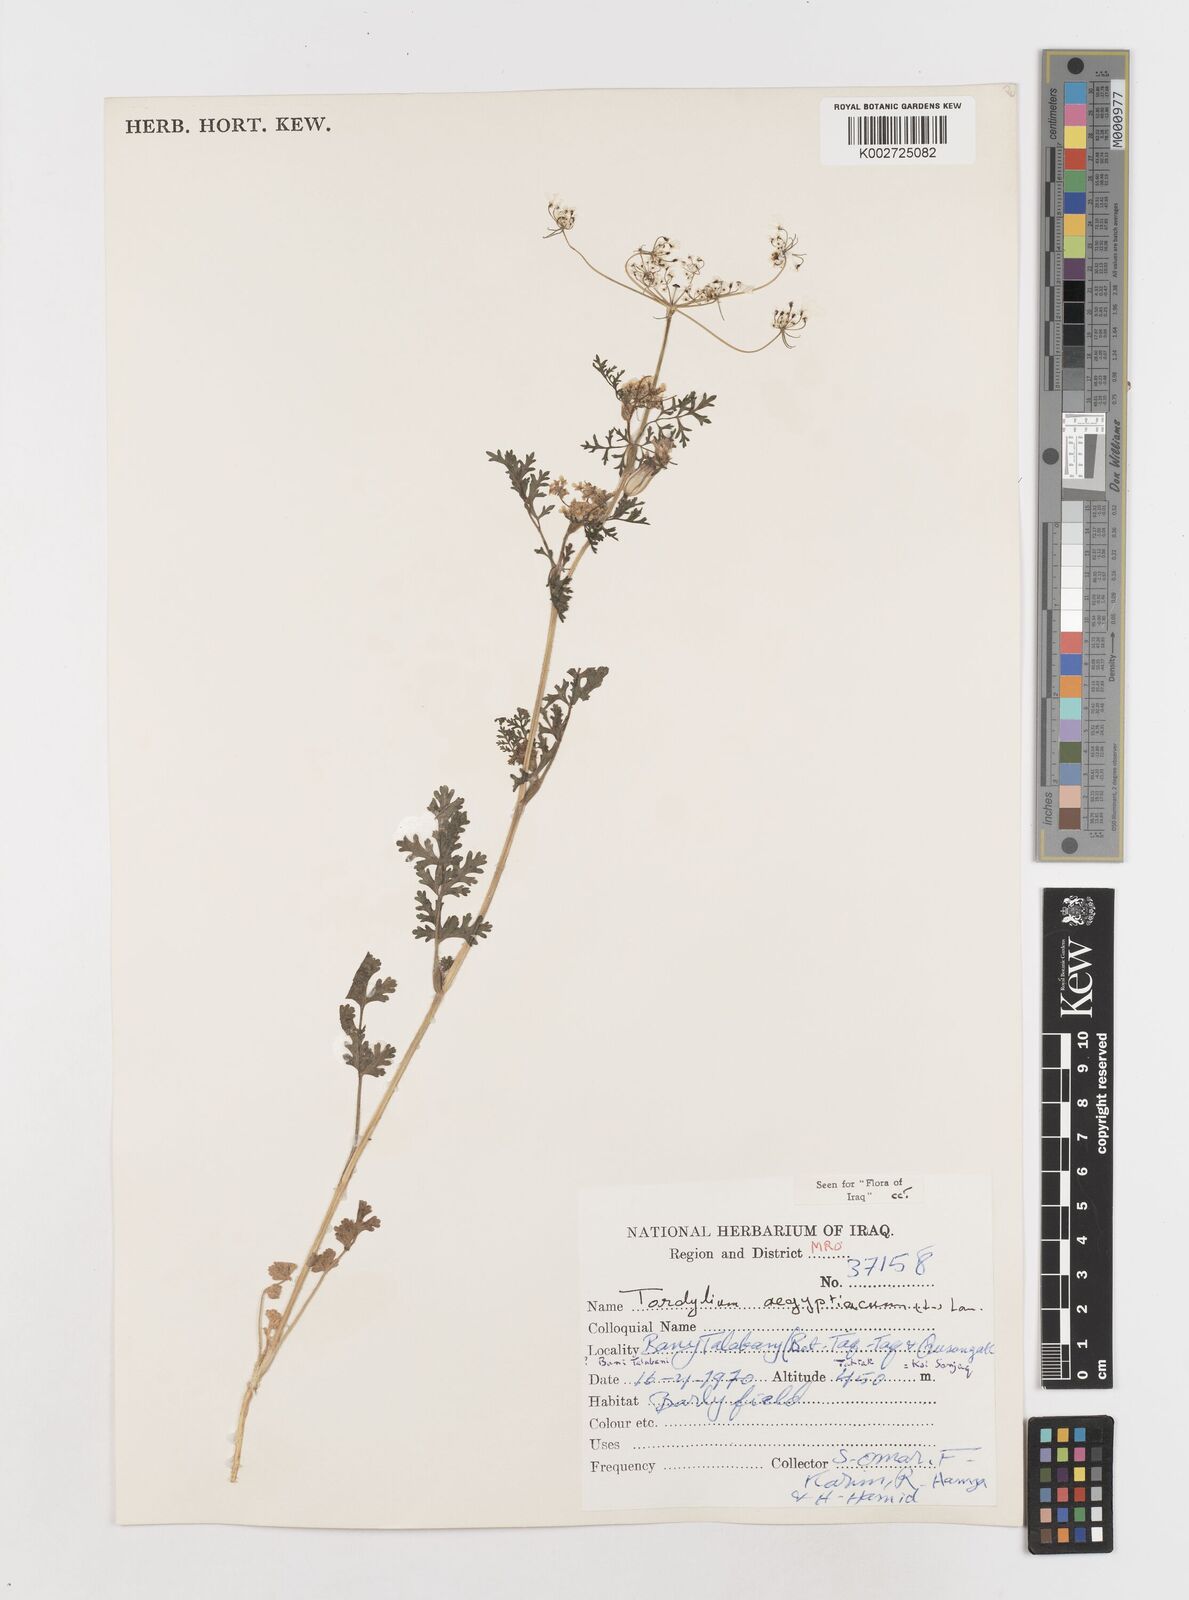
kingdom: Plantae
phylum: Tracheophyta
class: Magnoliopsida
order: Apiales
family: Apiaceae
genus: Tordylium
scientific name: Tordylium aegyptiacum
